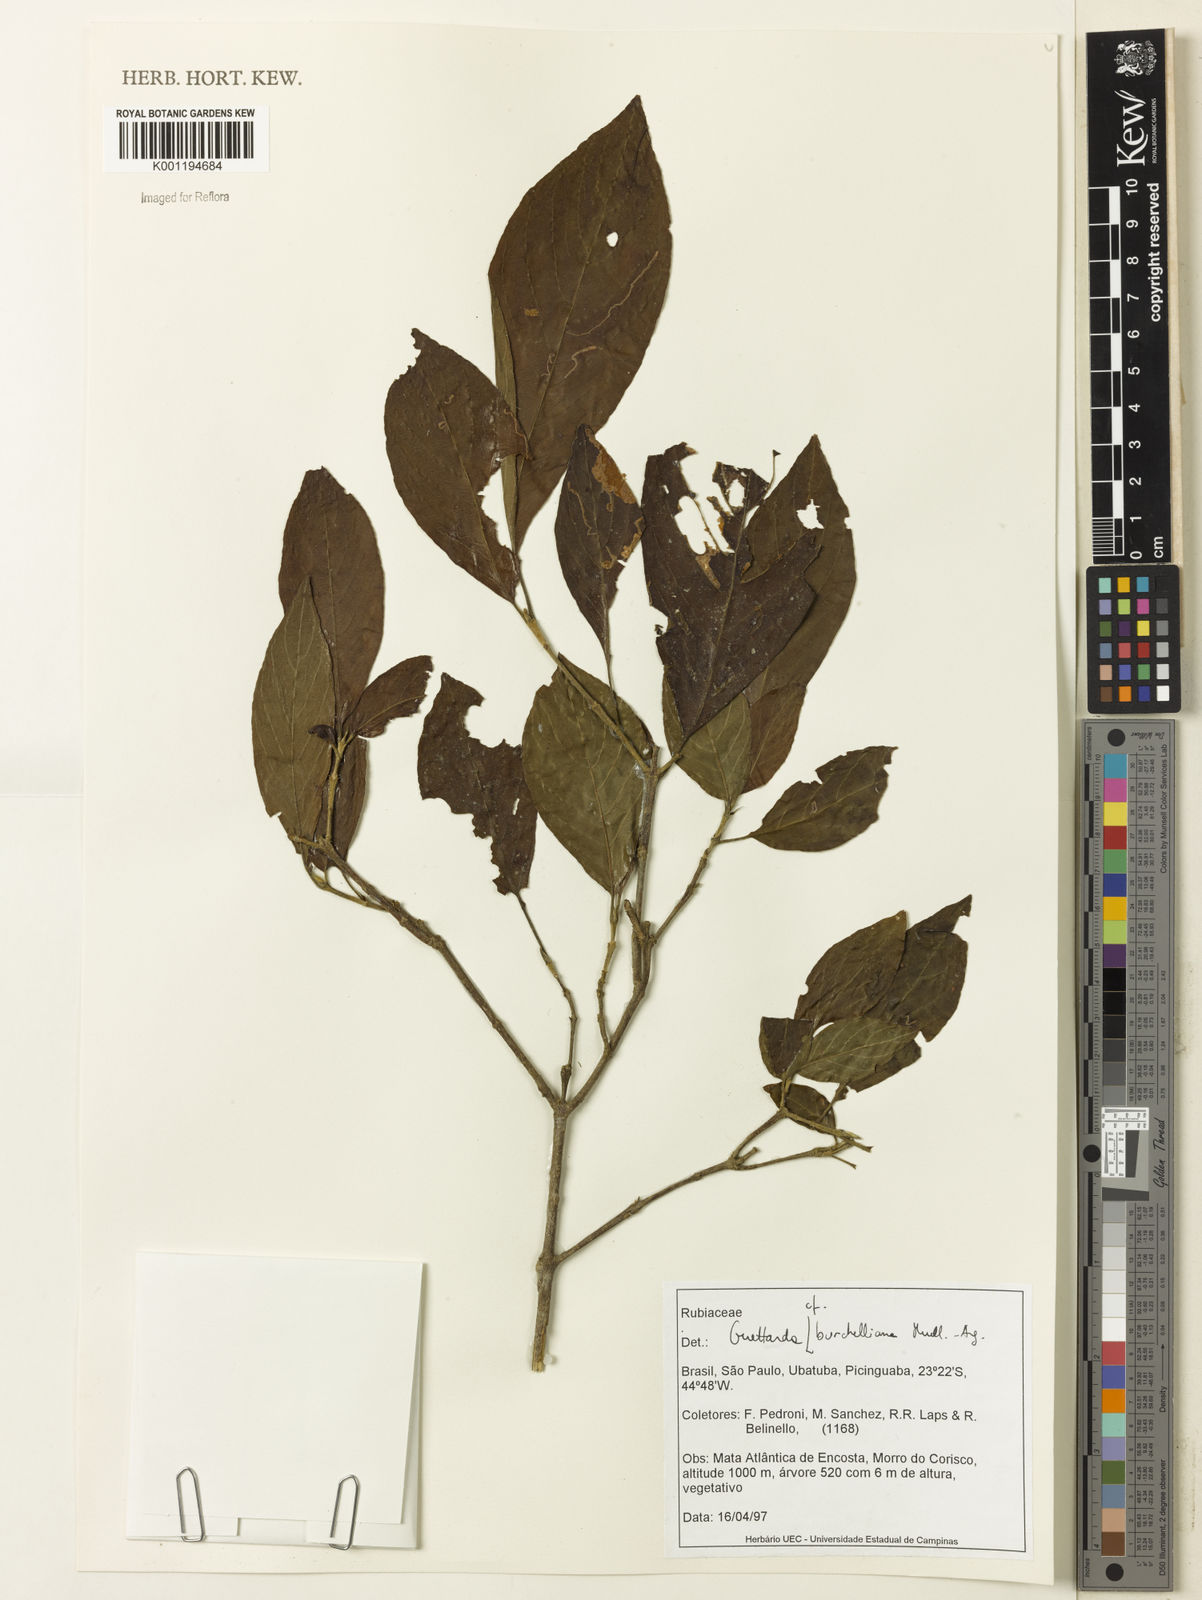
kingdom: Plantae
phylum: Tracheophyta
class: Magnoliopsida
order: Gentianales
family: Rubiaceae
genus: Guettarda
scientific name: Guettarda
